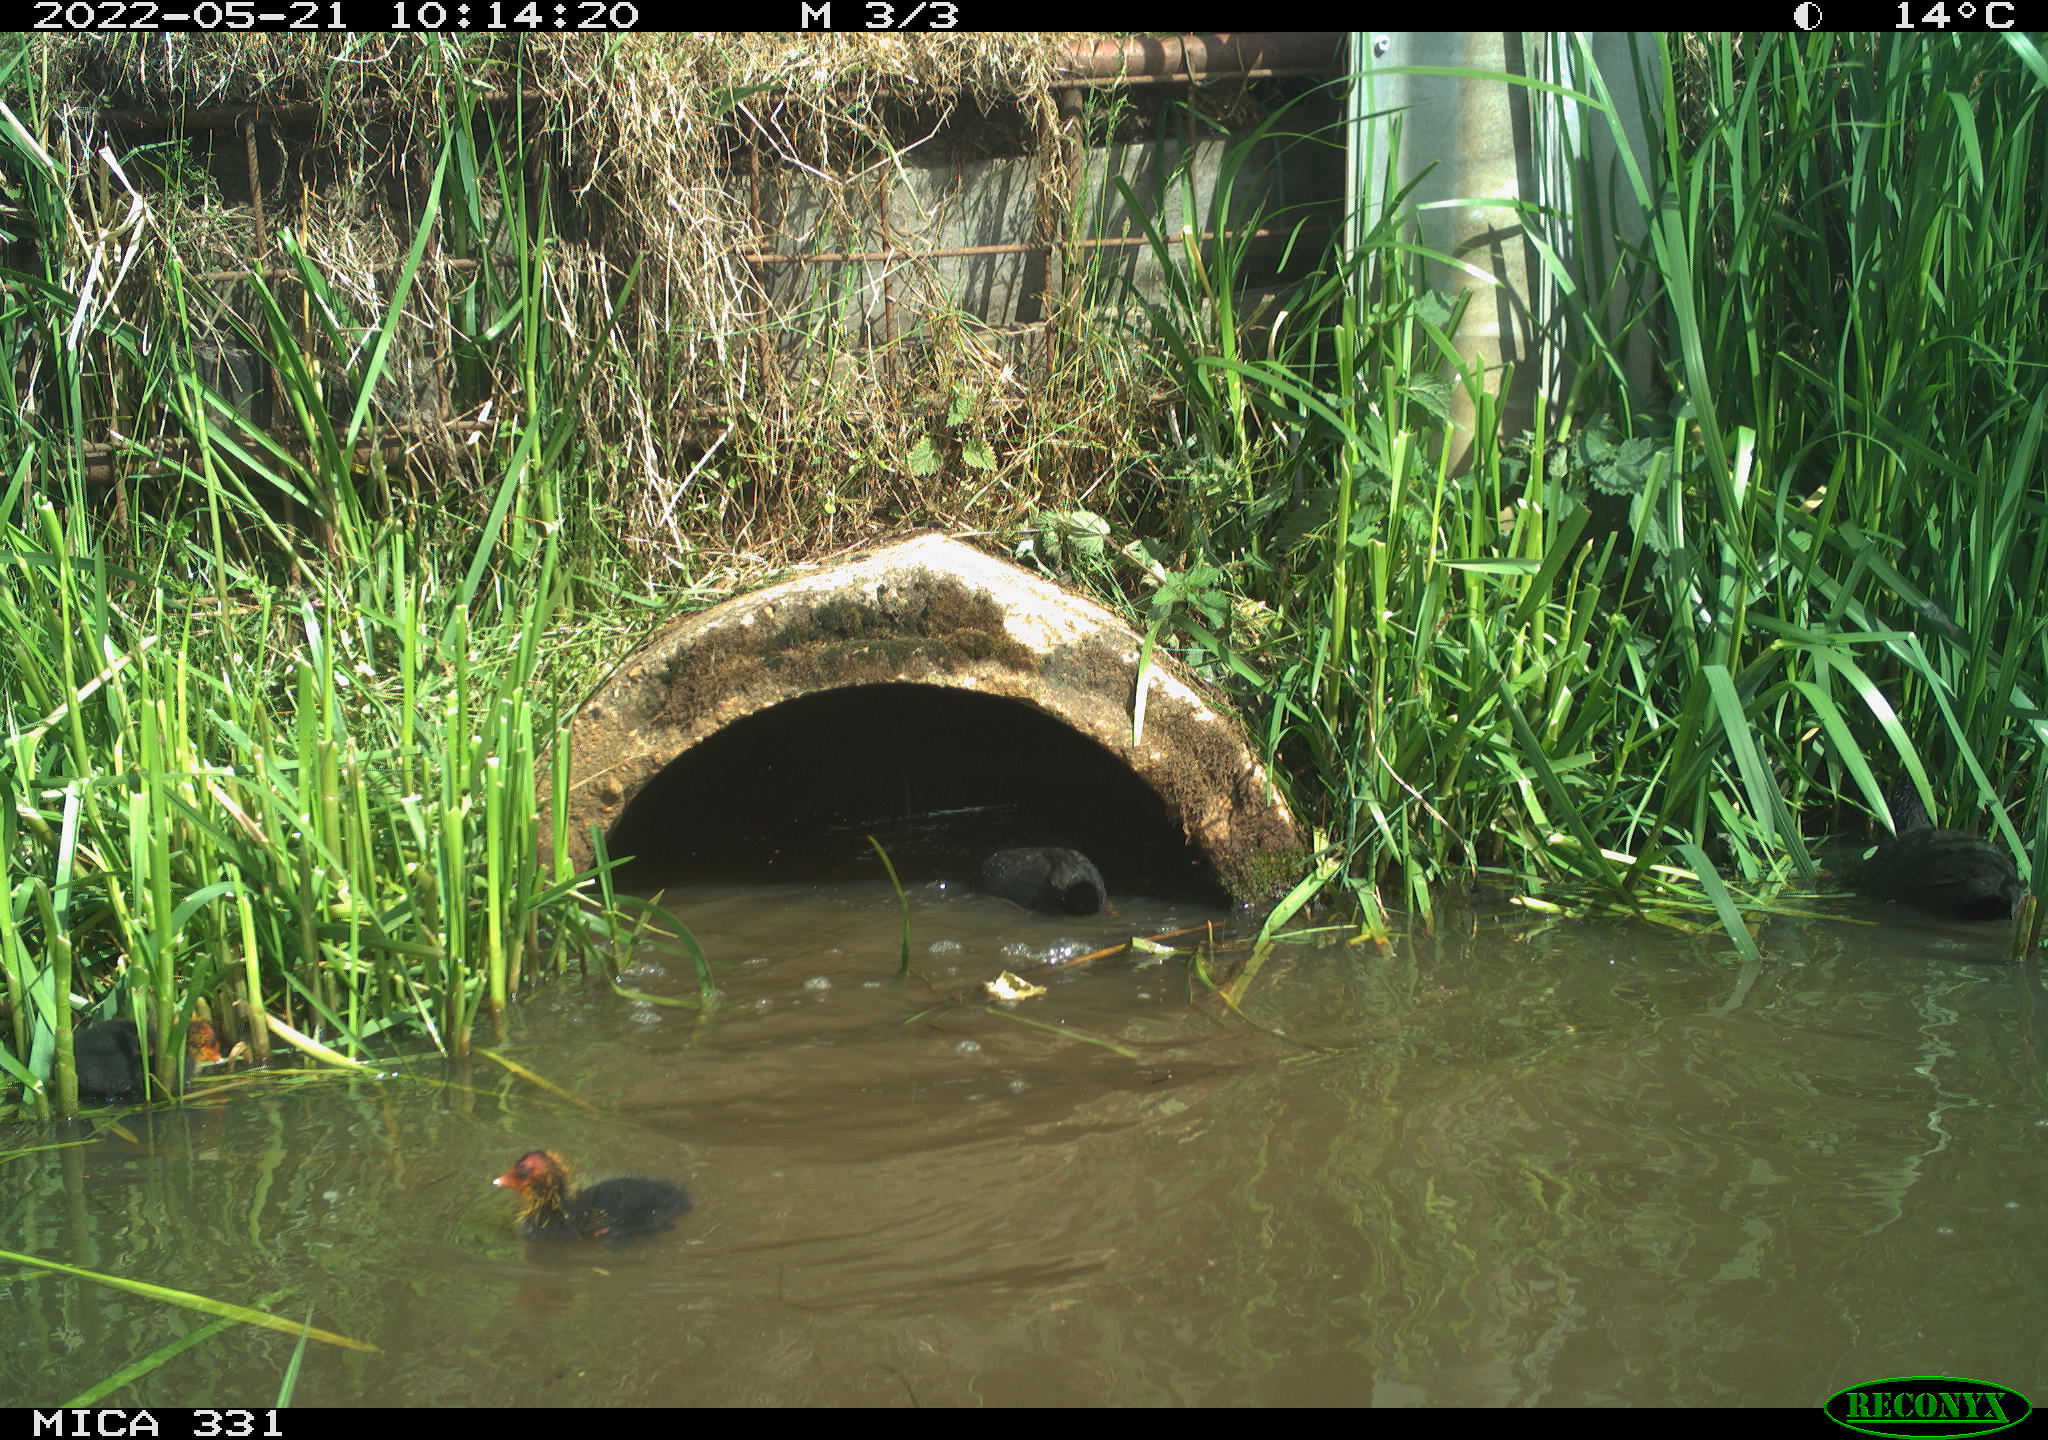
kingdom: Animalia
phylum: Chordata
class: Aves
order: Gruiformes
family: Rallidae
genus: Fulica
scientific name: Fulica atra
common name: Eurasian coot
